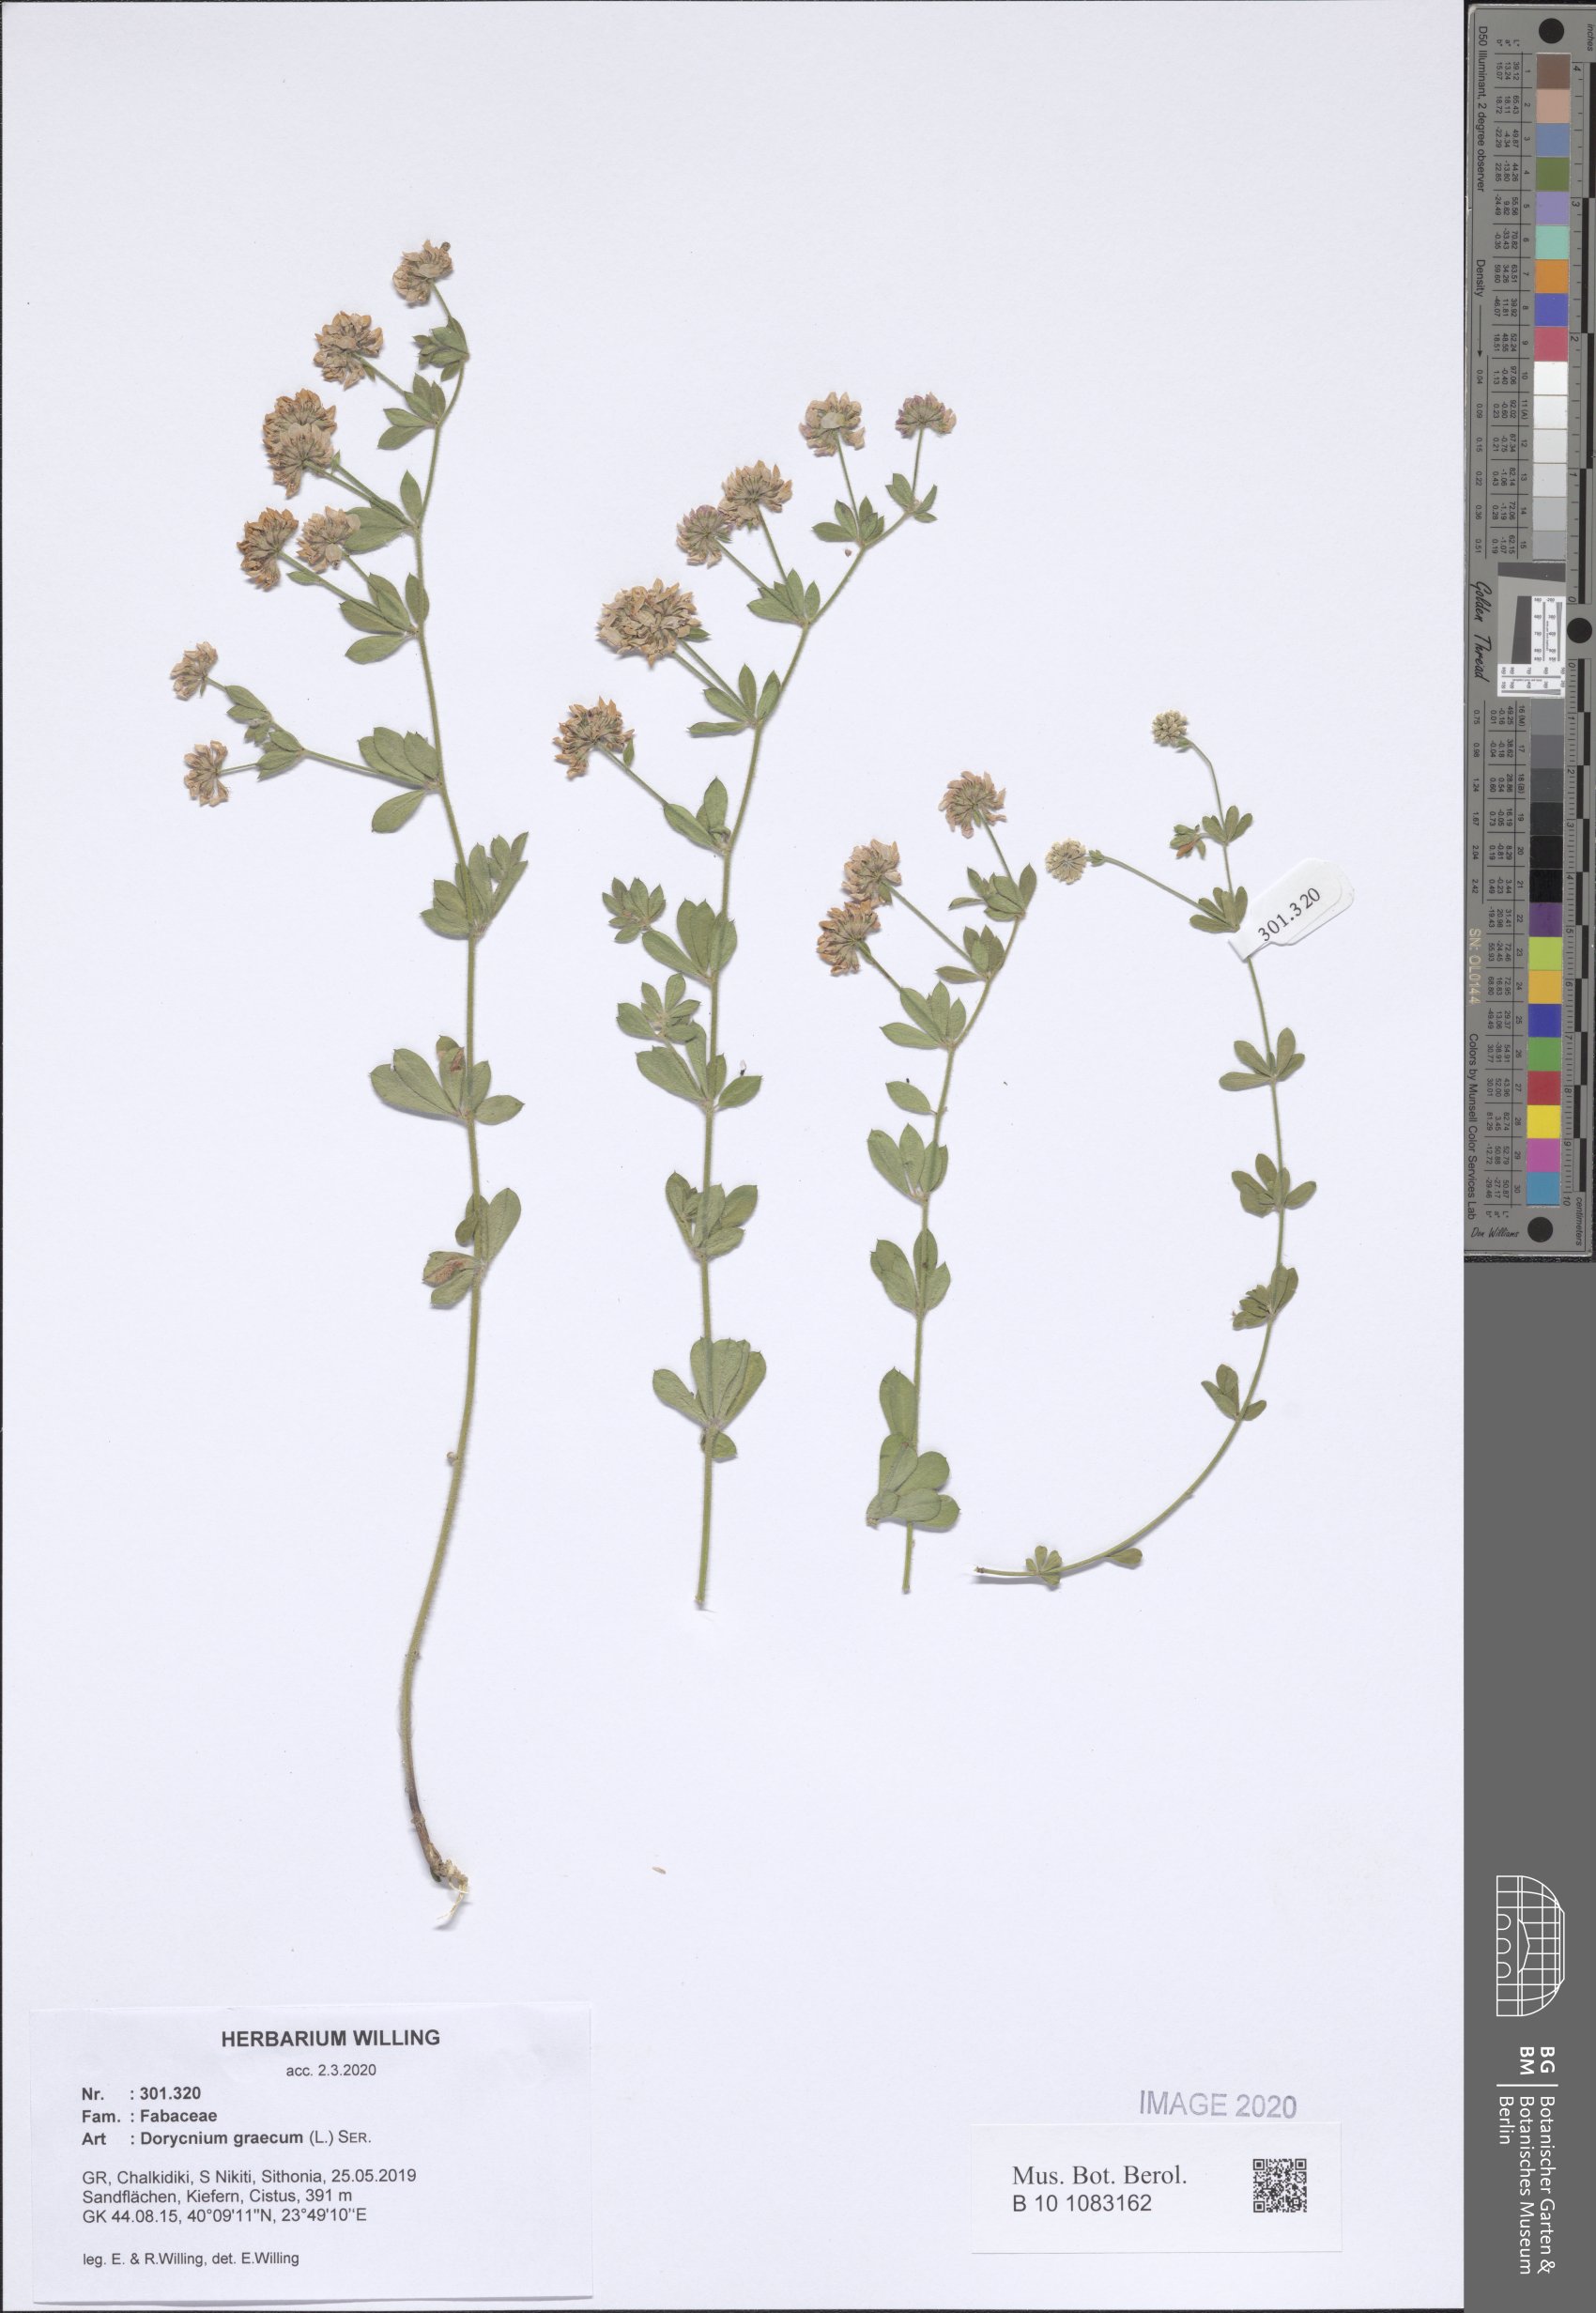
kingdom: Plantae
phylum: Tracheophyta
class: Magnoliopsida
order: Fabales
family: Fabaceae
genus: Lotus
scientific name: Lotus graecus
